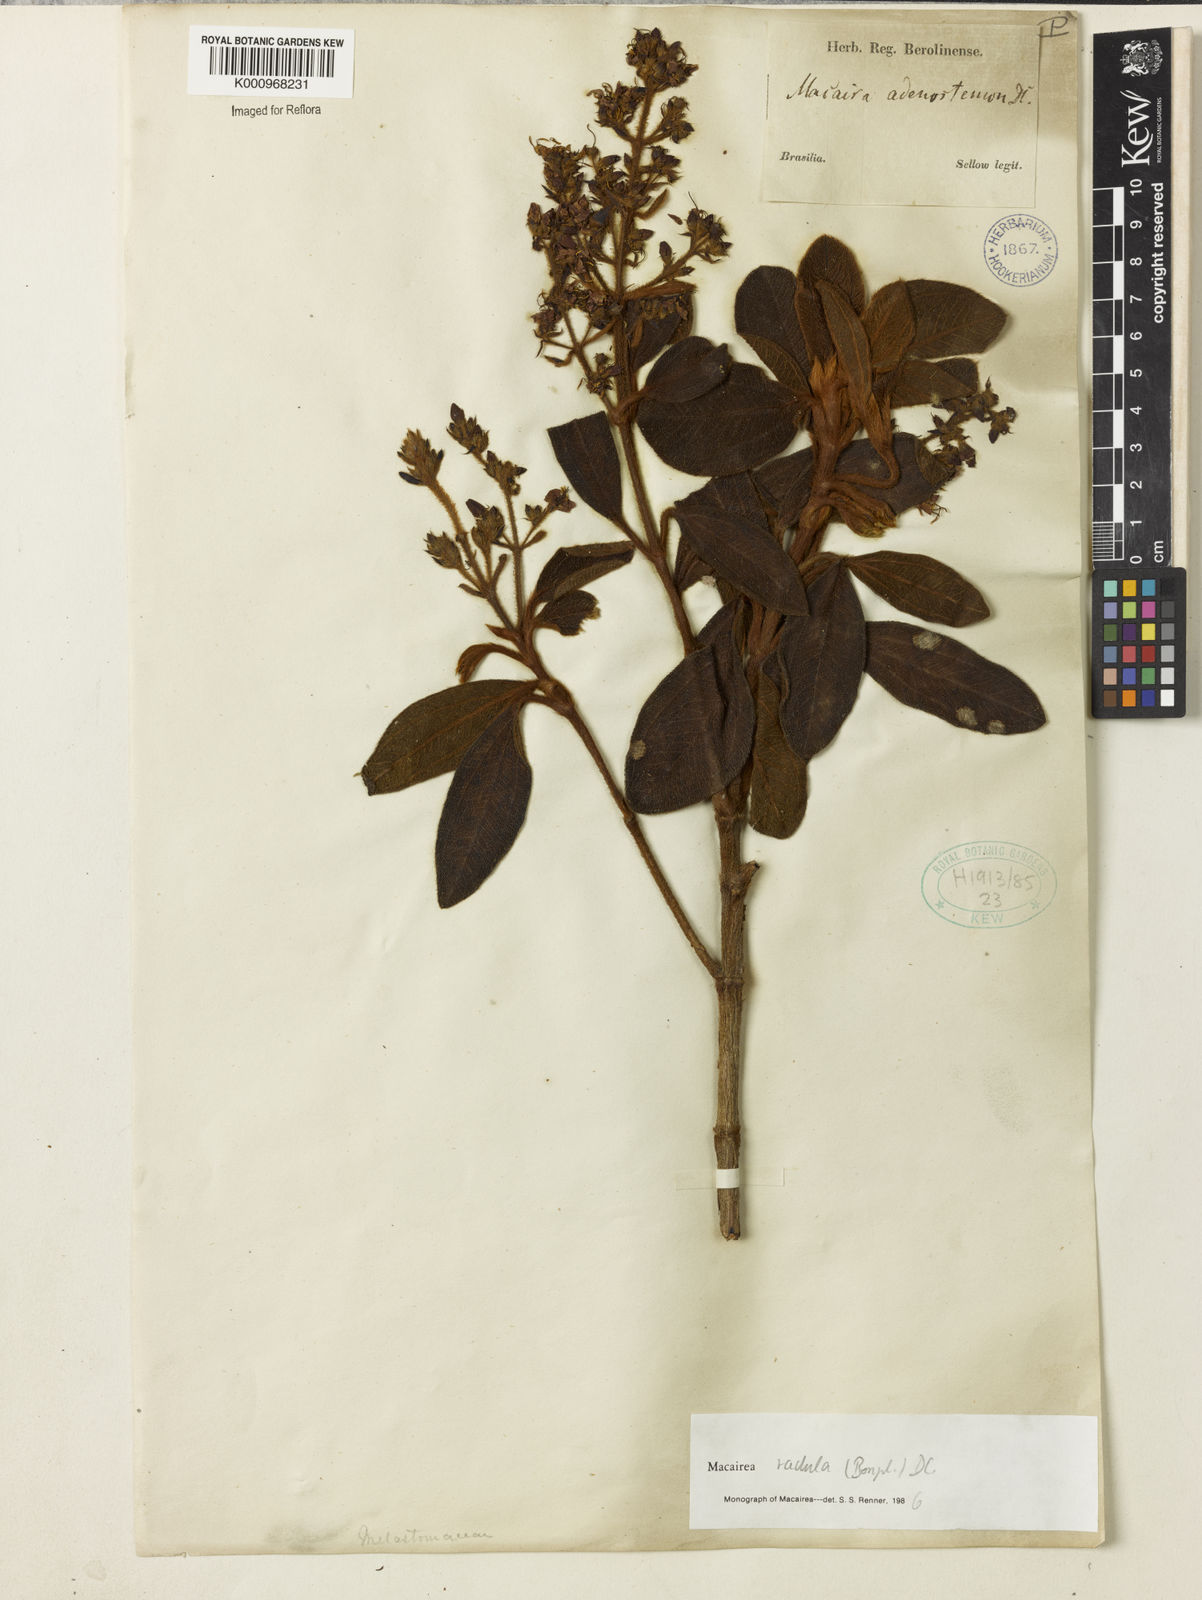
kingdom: Plantae
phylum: Tracheophyta
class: Magnoliopsida
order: Myrtales
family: Melastomataceae
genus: Macairea
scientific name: Macairea radula
